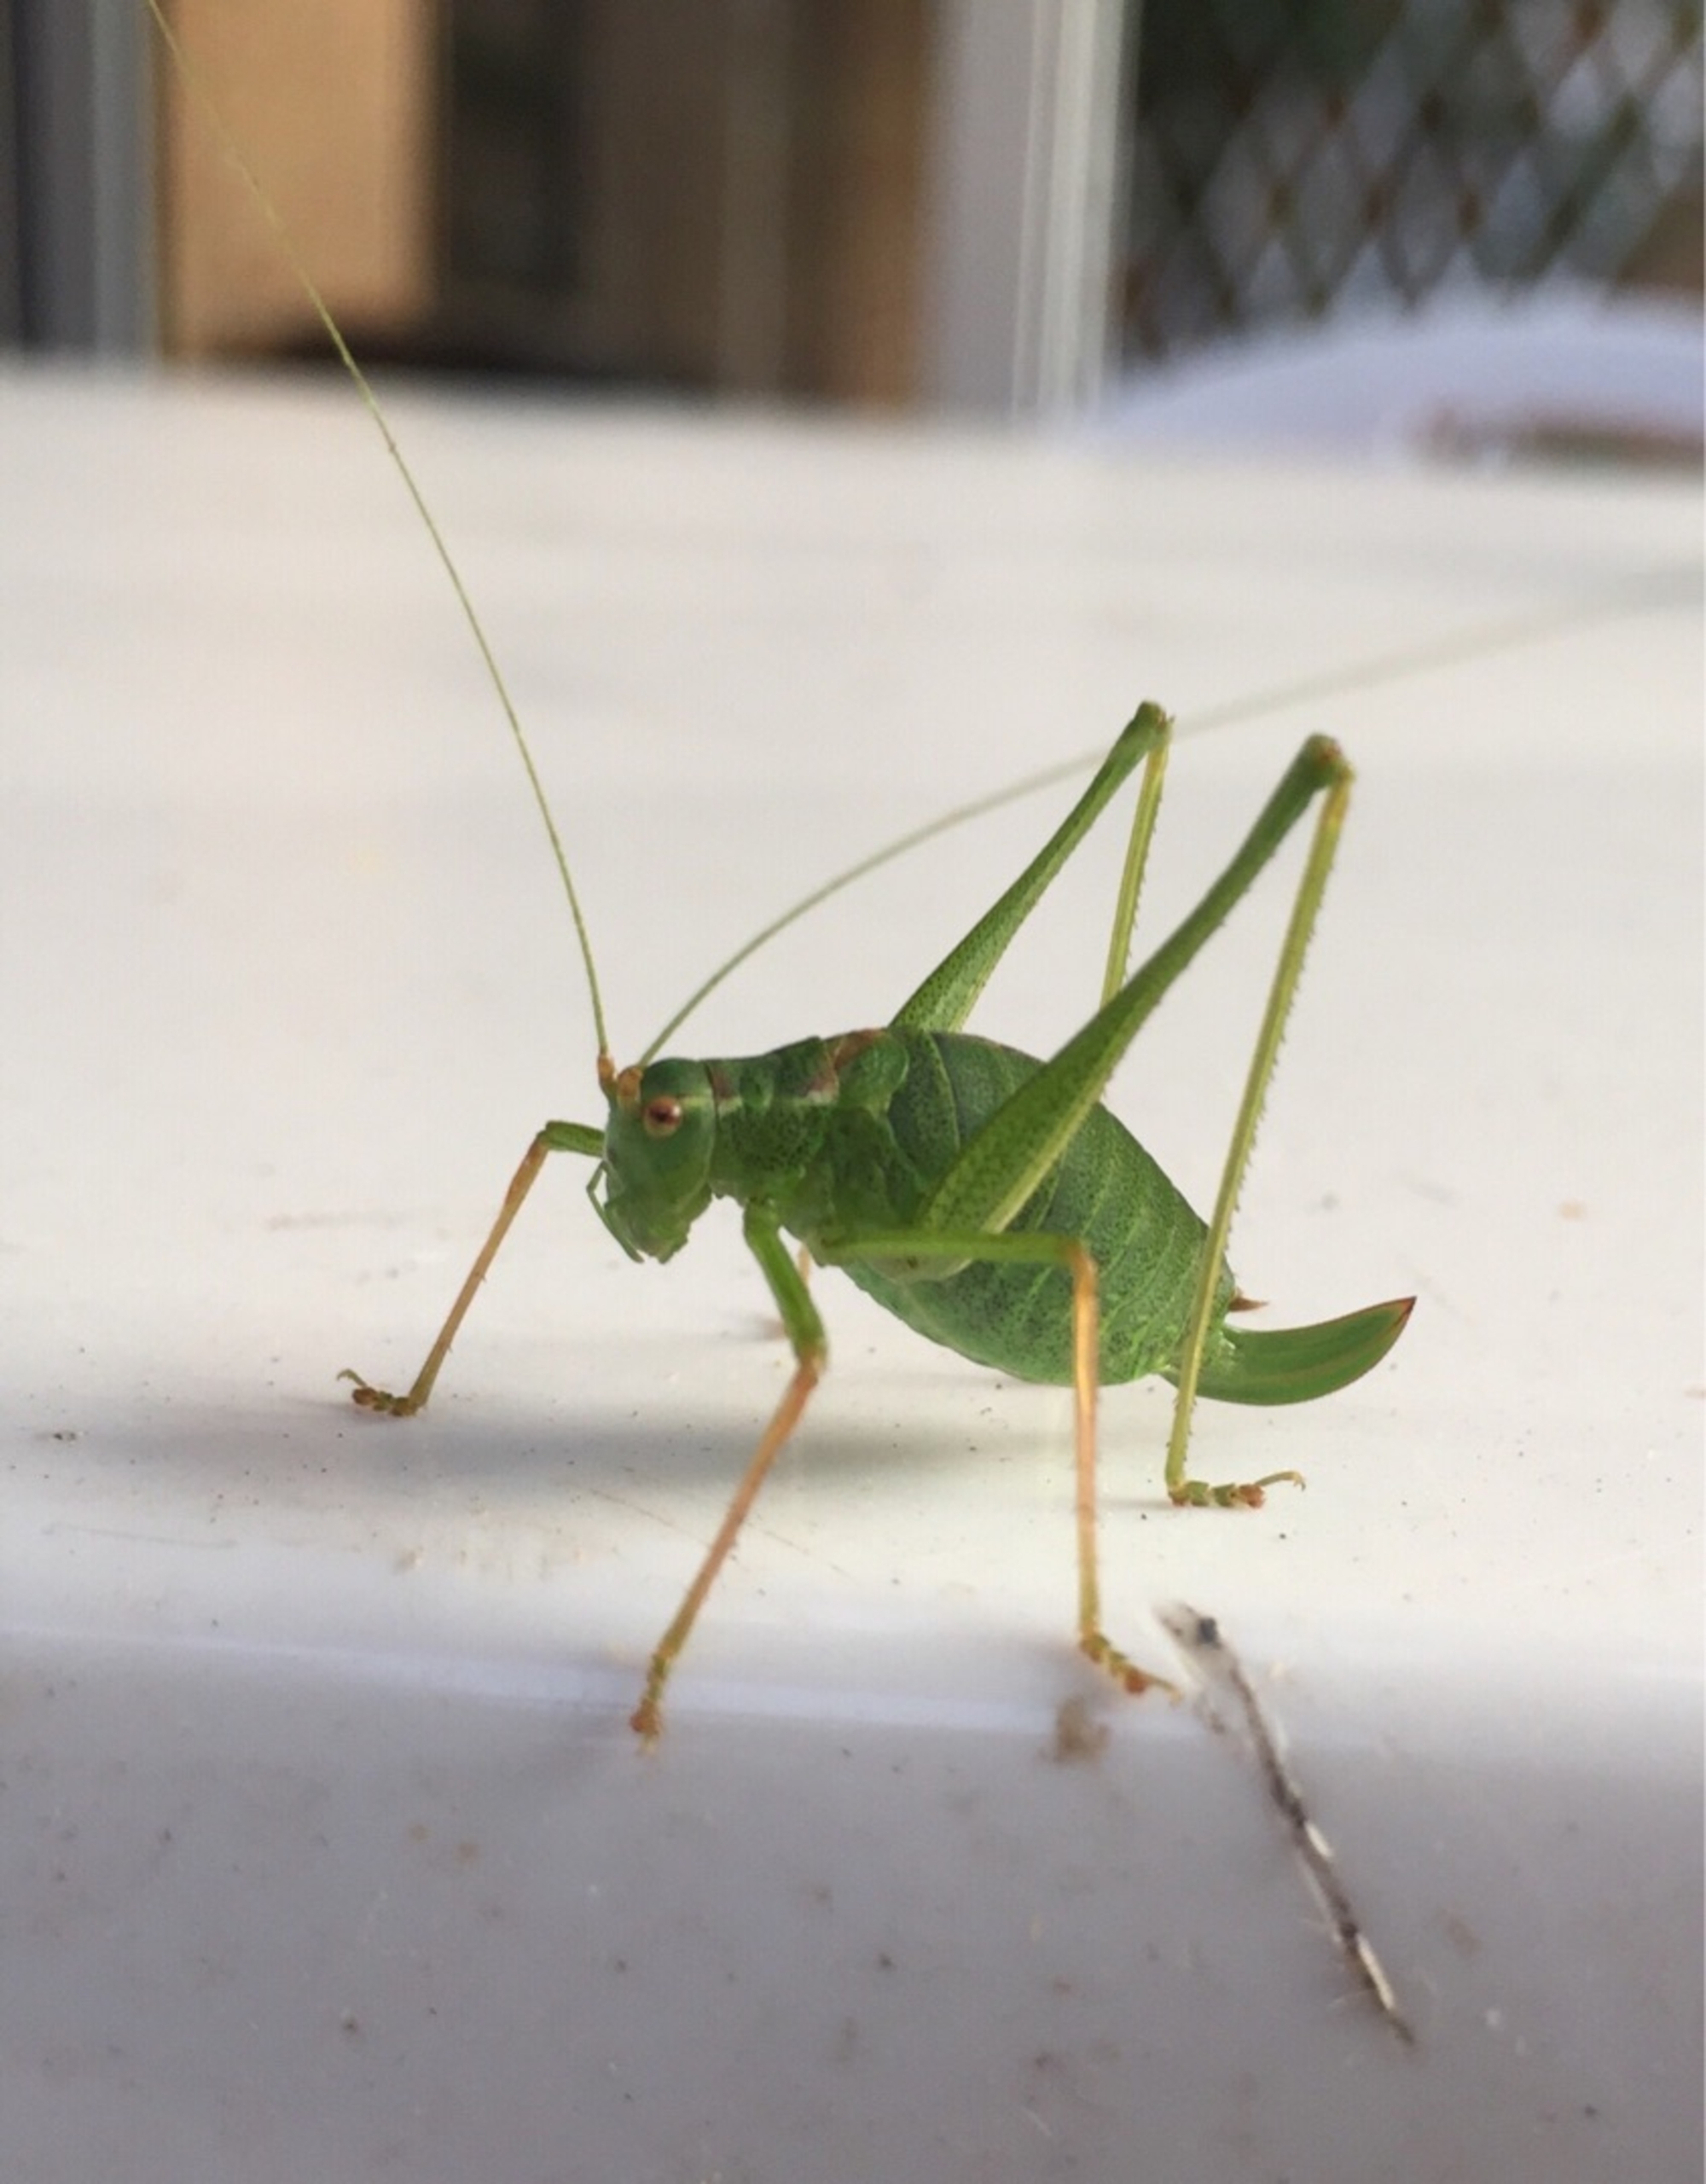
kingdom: Animalia
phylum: Arthropoda
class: Insecta
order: Orthoptera
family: Tettigoniidae
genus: Leptophyes
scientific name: Leptophyes punctatissima
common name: Krumknivgræshoppe
